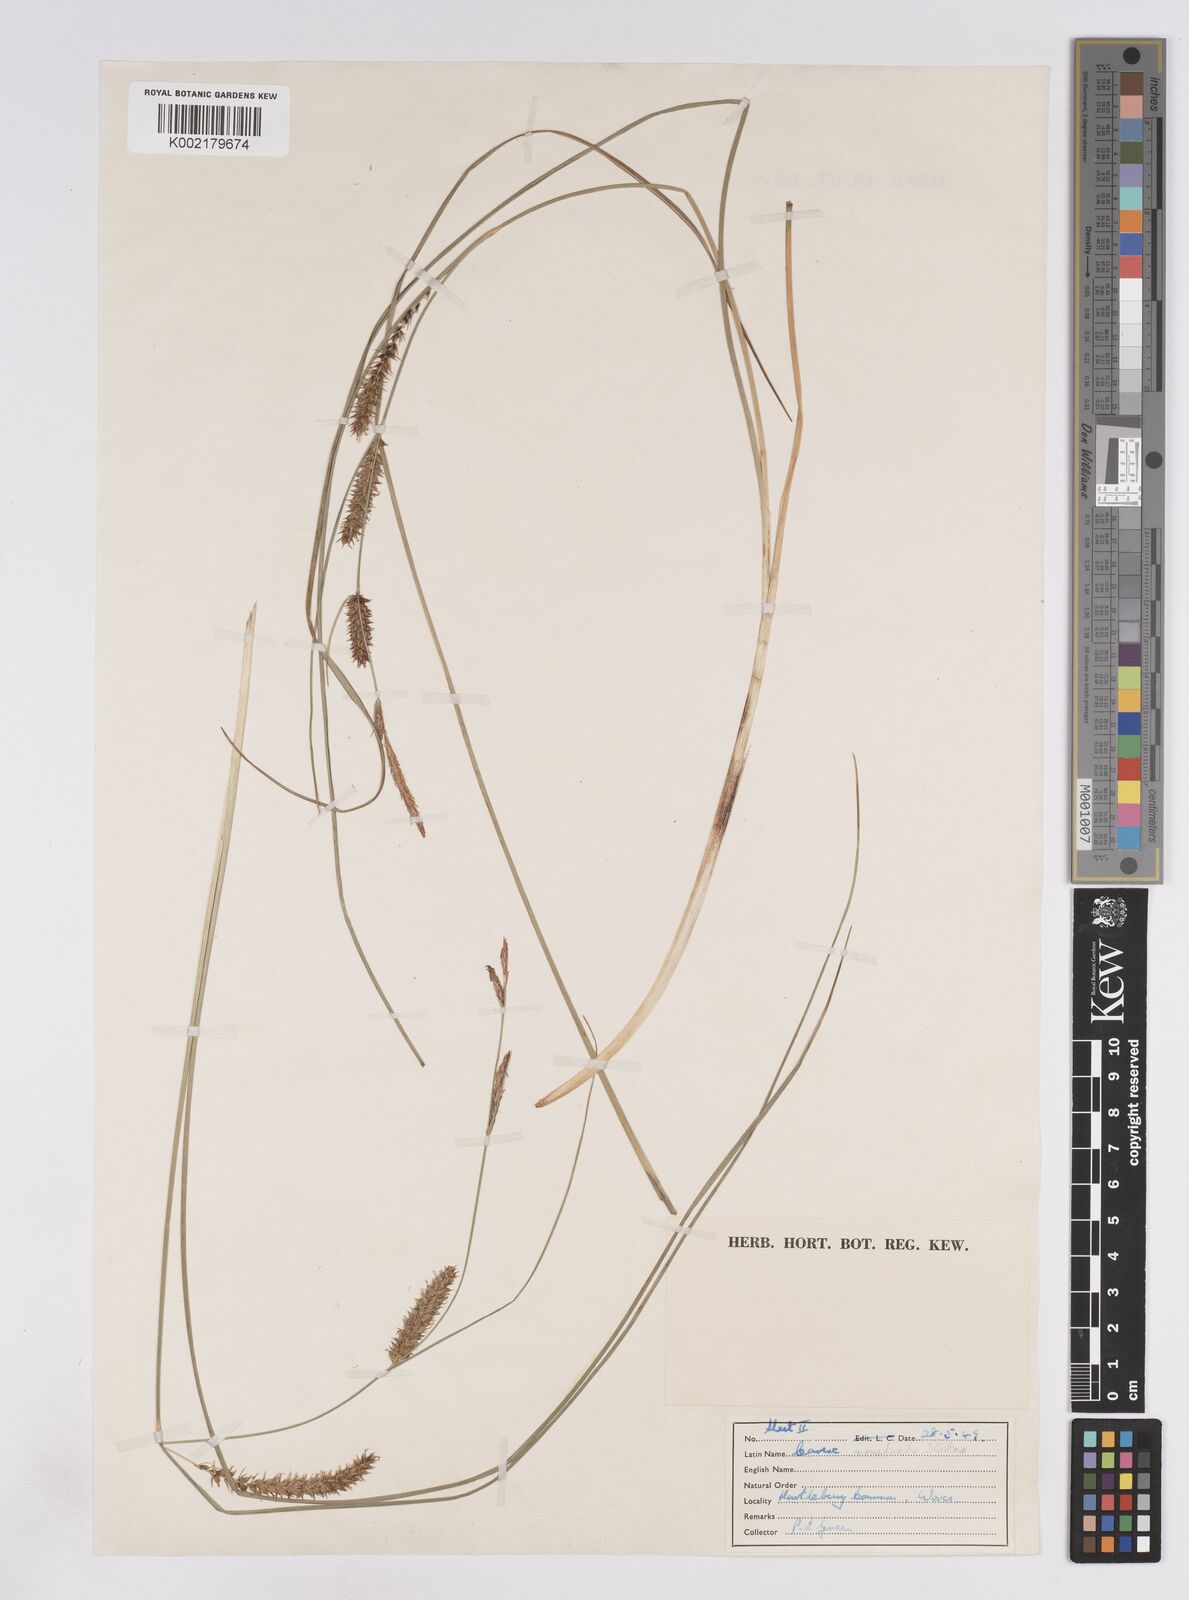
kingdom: Plantae
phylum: Tracheophyta
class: Liliopsida
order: Poales
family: Cyperaceae
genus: Carex
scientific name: Carex rostrata
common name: Bottle sedge
